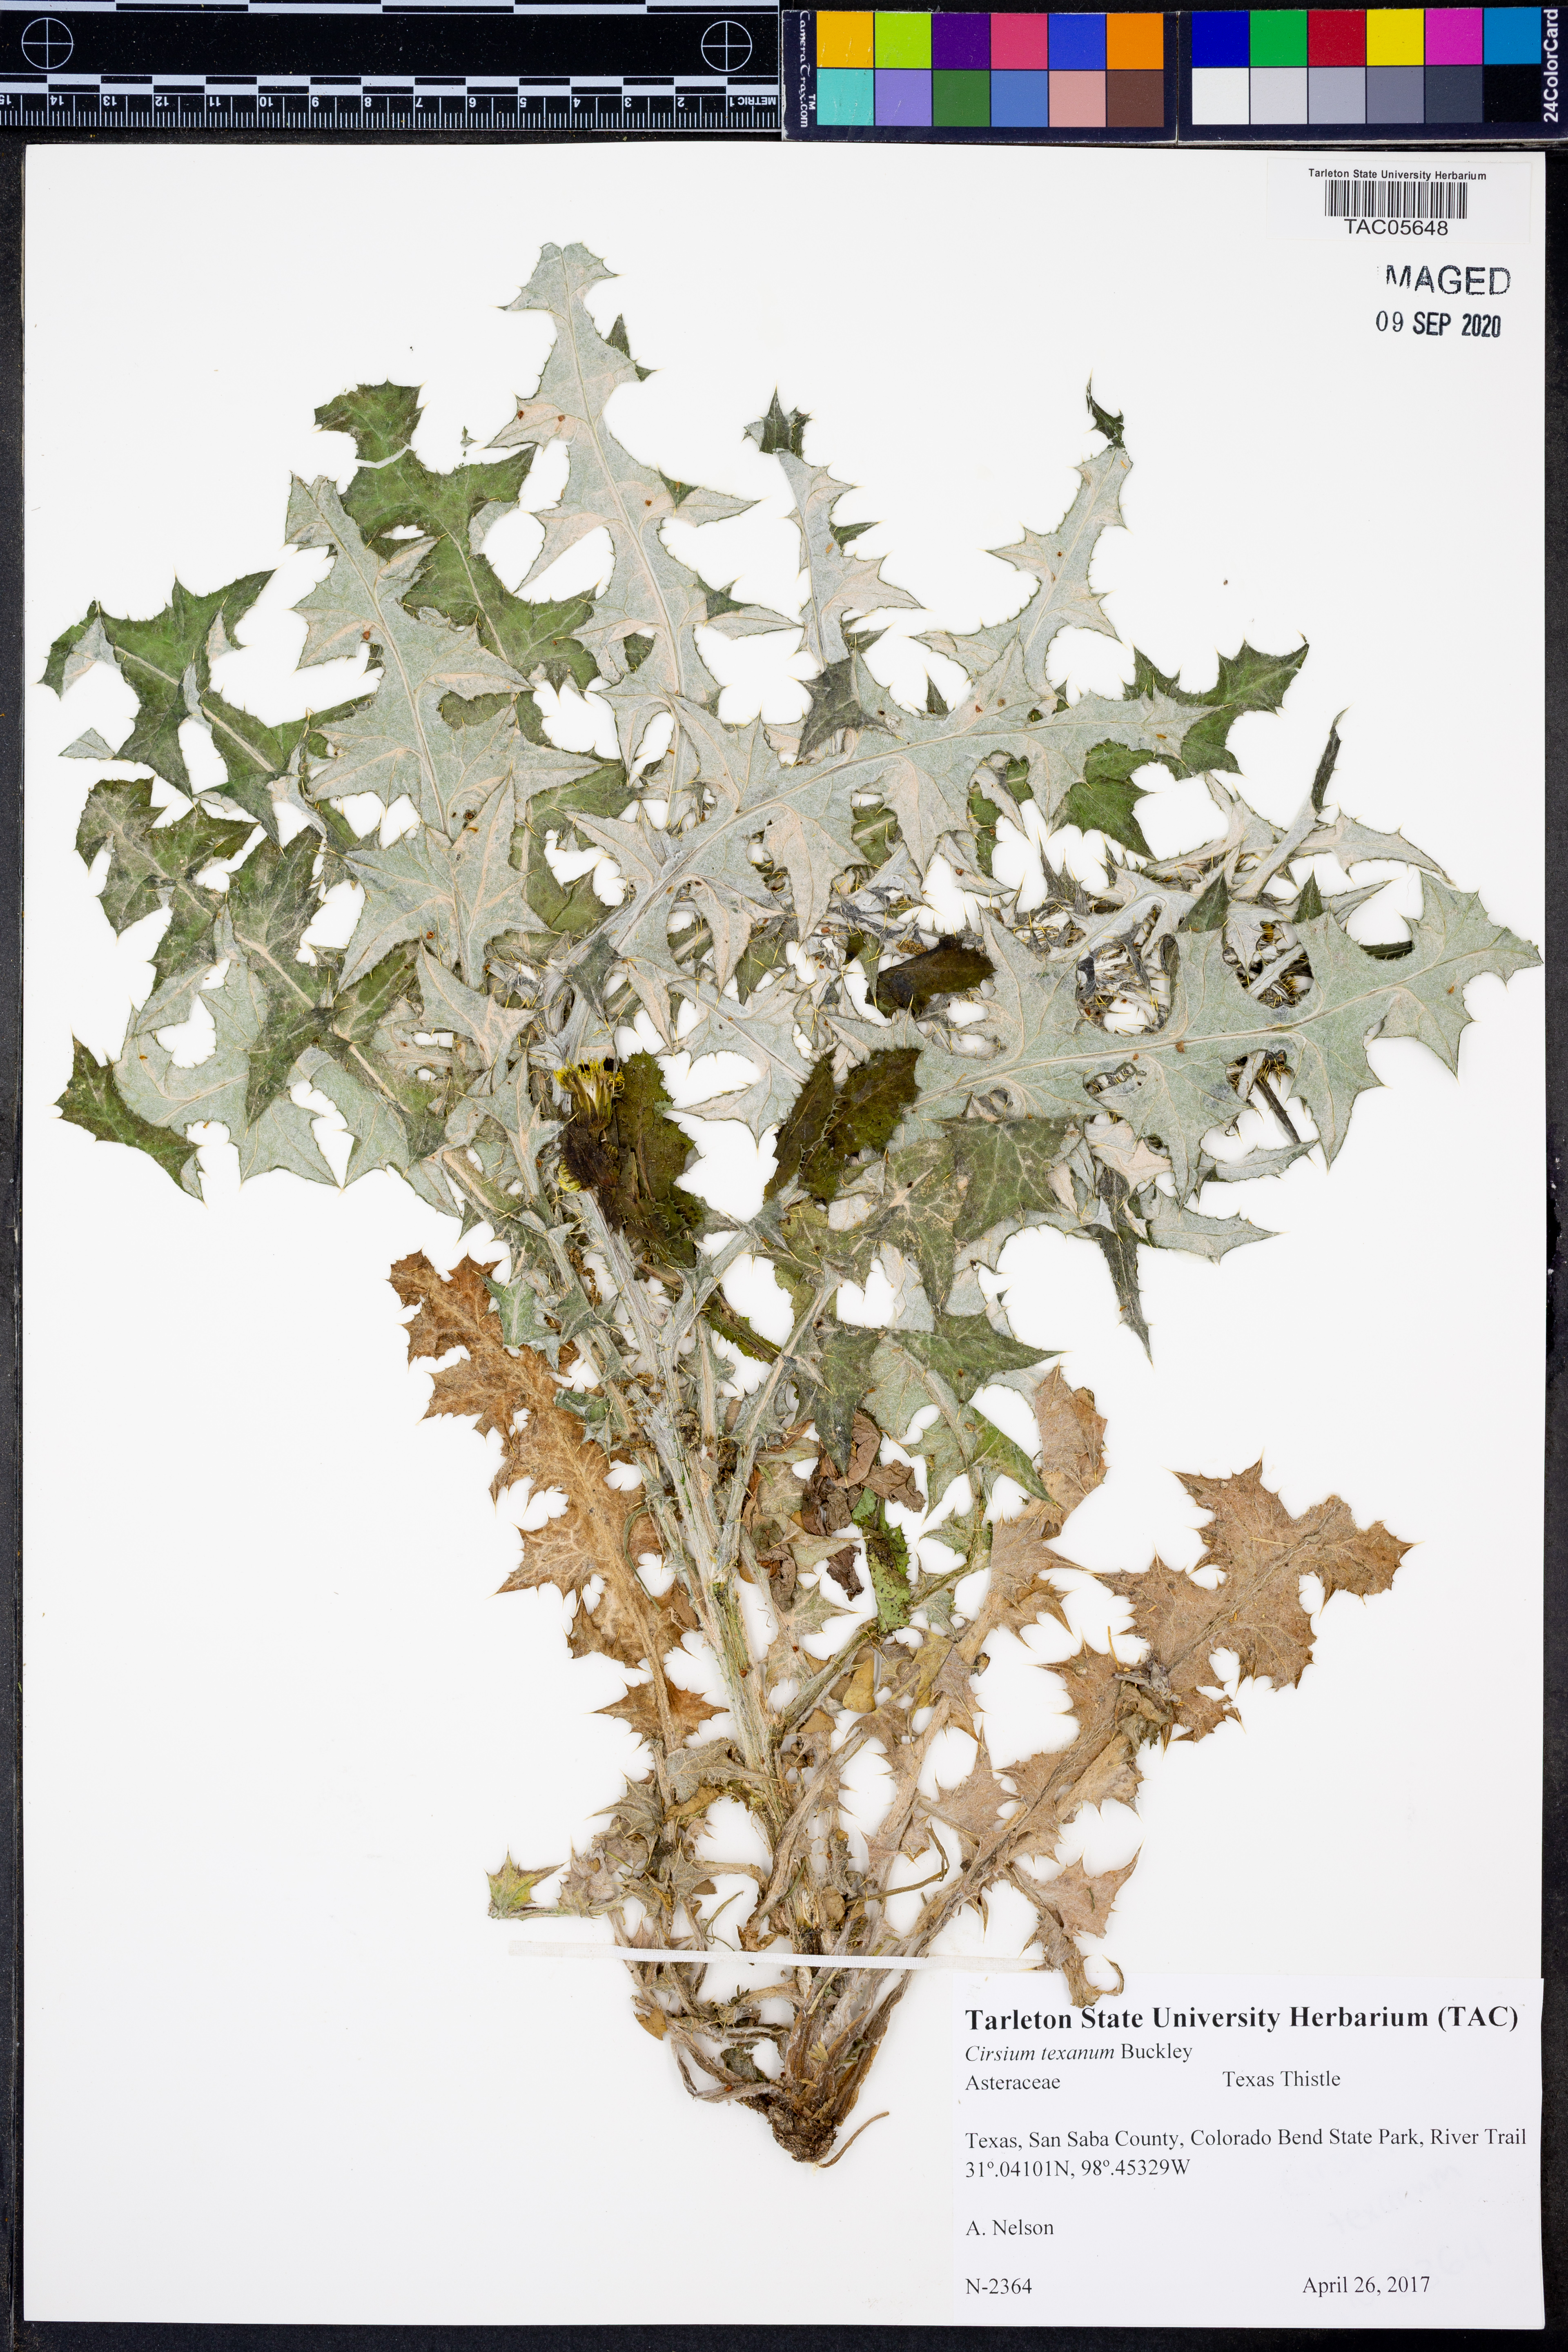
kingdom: Plantae
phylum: Tracheophyta
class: Magnoliopsida
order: Asterales
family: Asteraceae
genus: Cirsium
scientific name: Cirsium texanum
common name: Texas purple thistle
